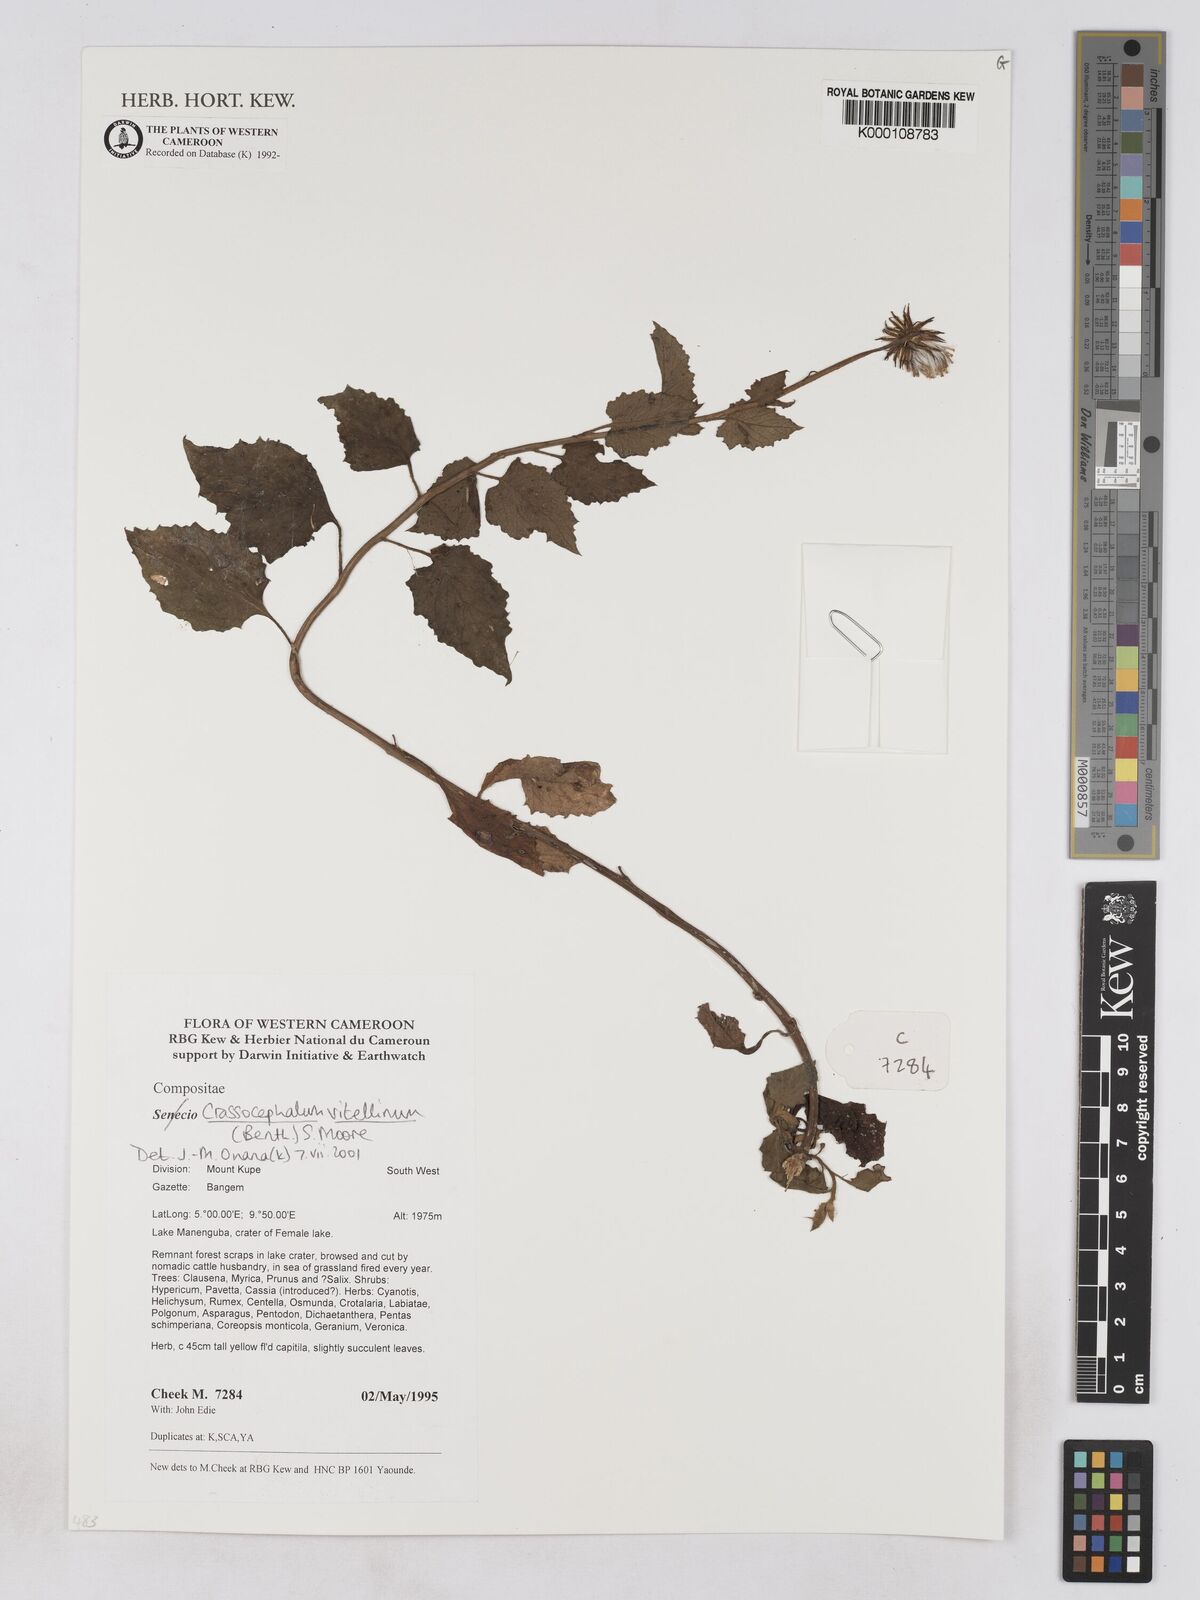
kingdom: Plantae
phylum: Tracheophyta
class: Magnoliopsida
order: Asterales
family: Asteraceae
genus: Crassocephalum
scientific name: Crassocephalum vitellinum
